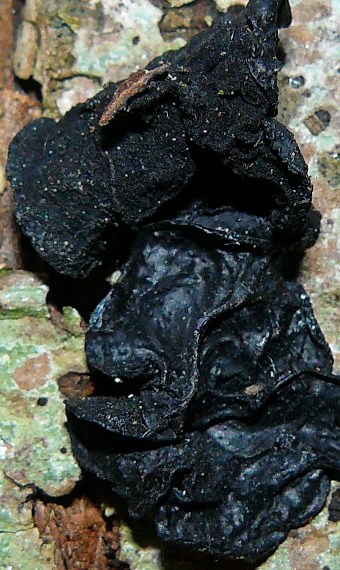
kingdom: Fungi
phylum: Basidiomycota
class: Agaricomycetes
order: Auriculariales
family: Auriculariaceae
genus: Exidia
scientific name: Exidia glandulosa
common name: ege-bævretop
